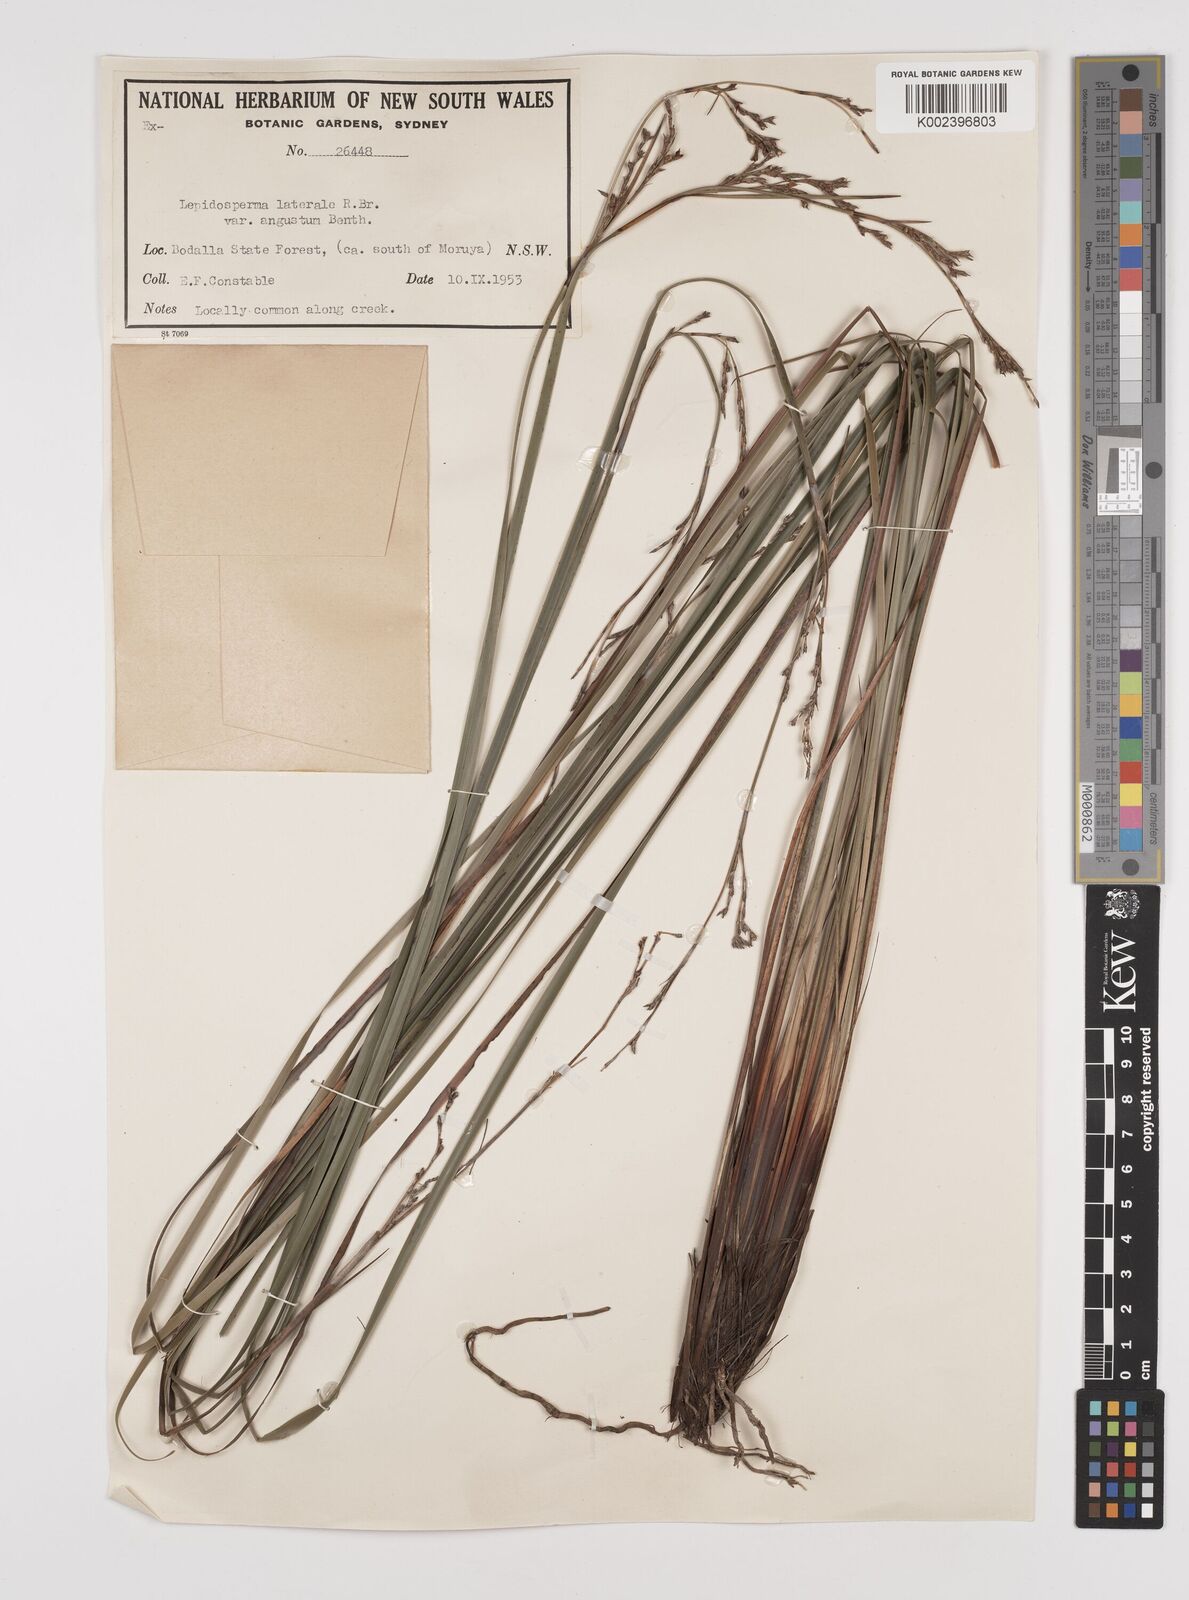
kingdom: Plantae
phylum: Tracheophyta
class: Liliopsida
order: Poales
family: Cyperaceae
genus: Lepidosperma
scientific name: Lepidosperma laterale
